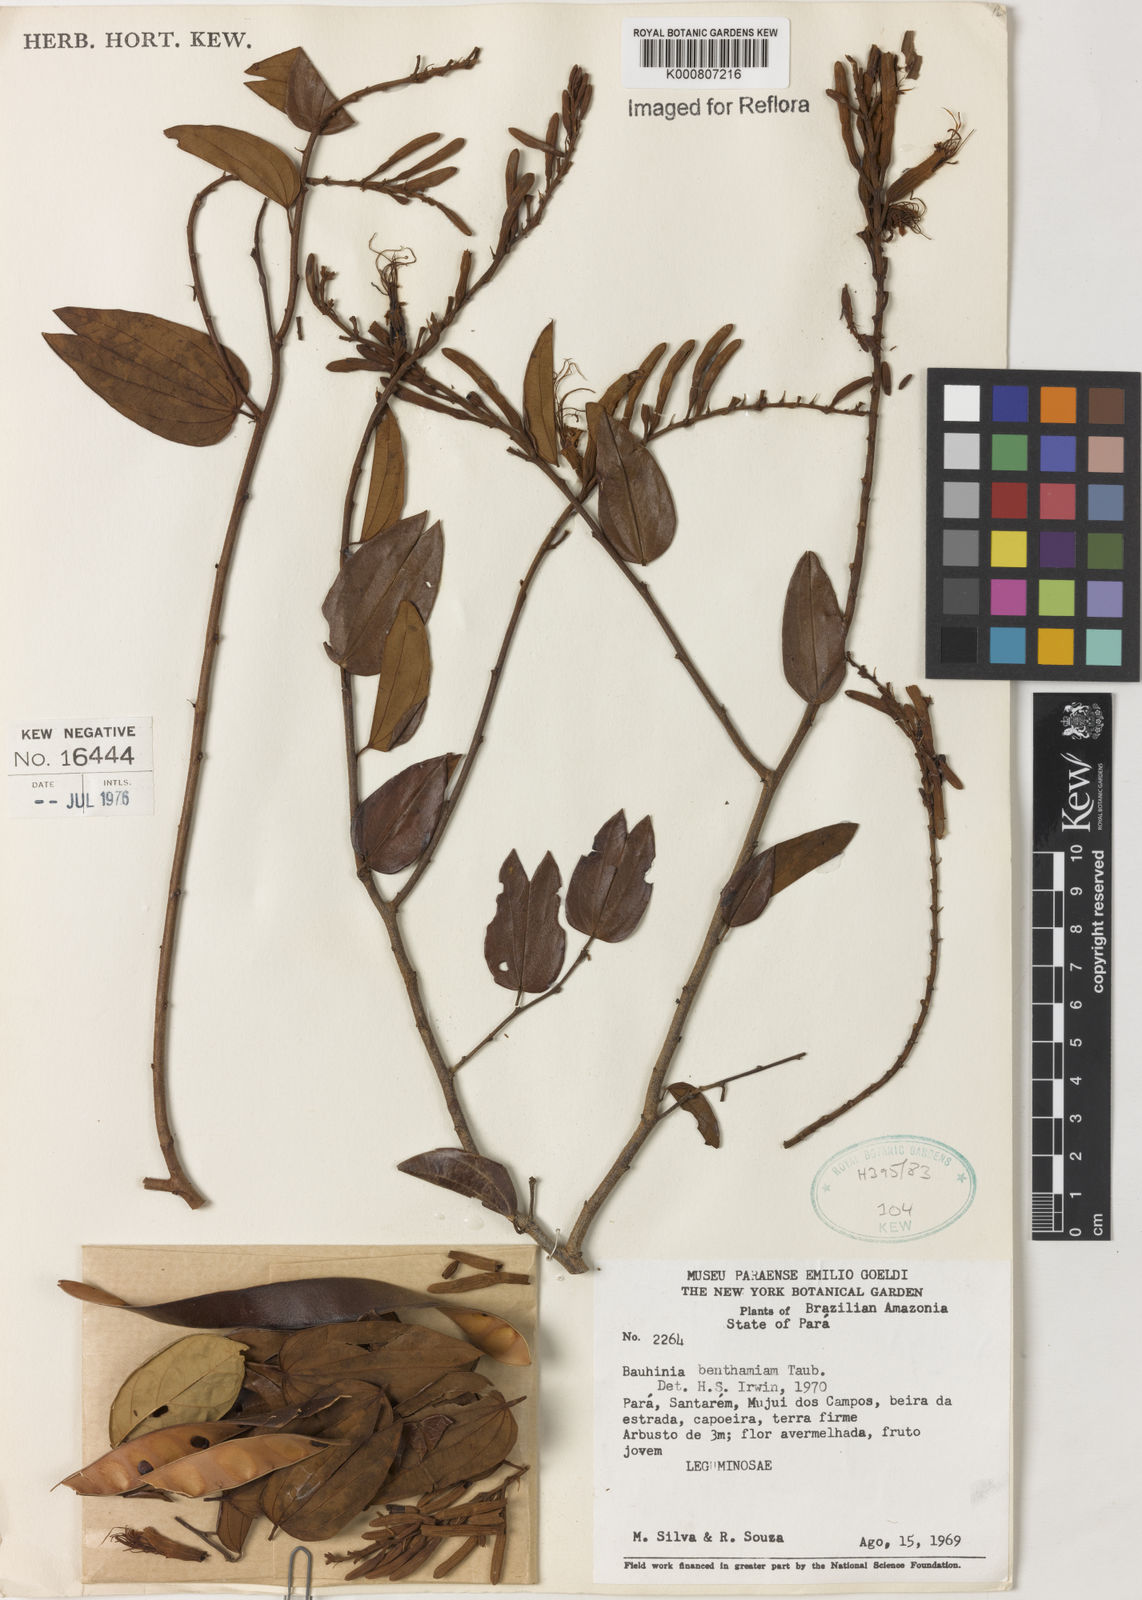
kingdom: Plantae
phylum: Tracheophyta
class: Magnoliopsida
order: Fabales
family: Fabaceae
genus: Bauhinia
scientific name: Bauhinia ungulata
